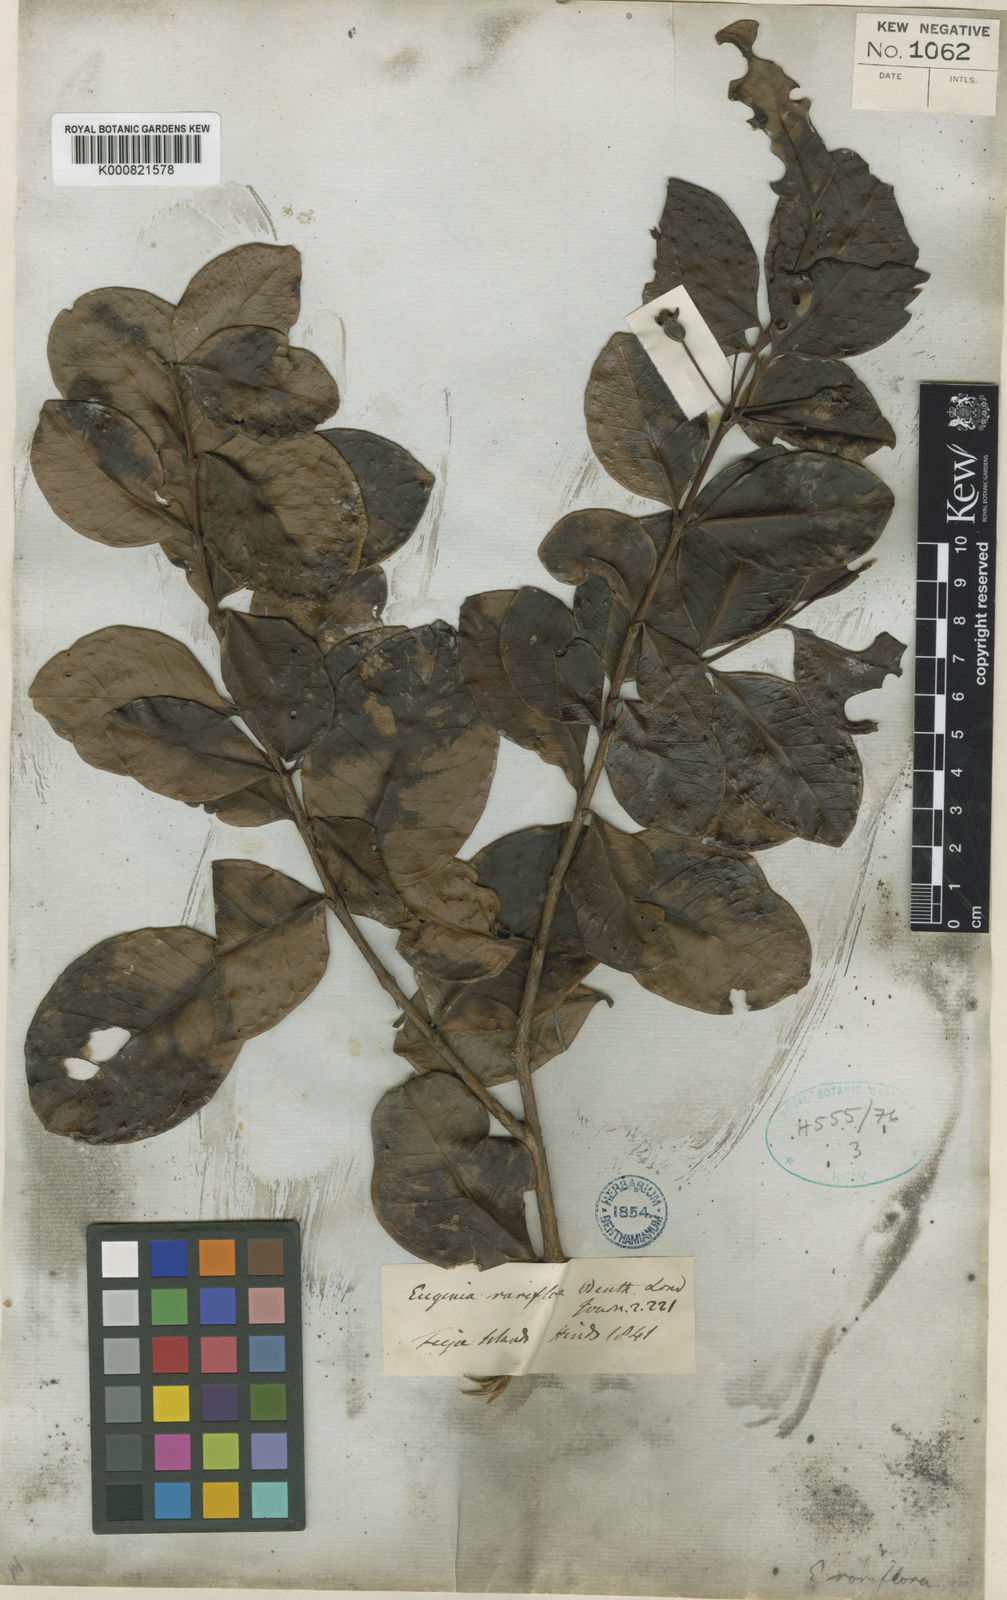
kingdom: Plantae
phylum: Tracheophyta
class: Magnoliopsida
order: Myrtales
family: Myrtaceae
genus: Eugenia
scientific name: Eugenia reinwardtiana
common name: Cedar bay-cherry
